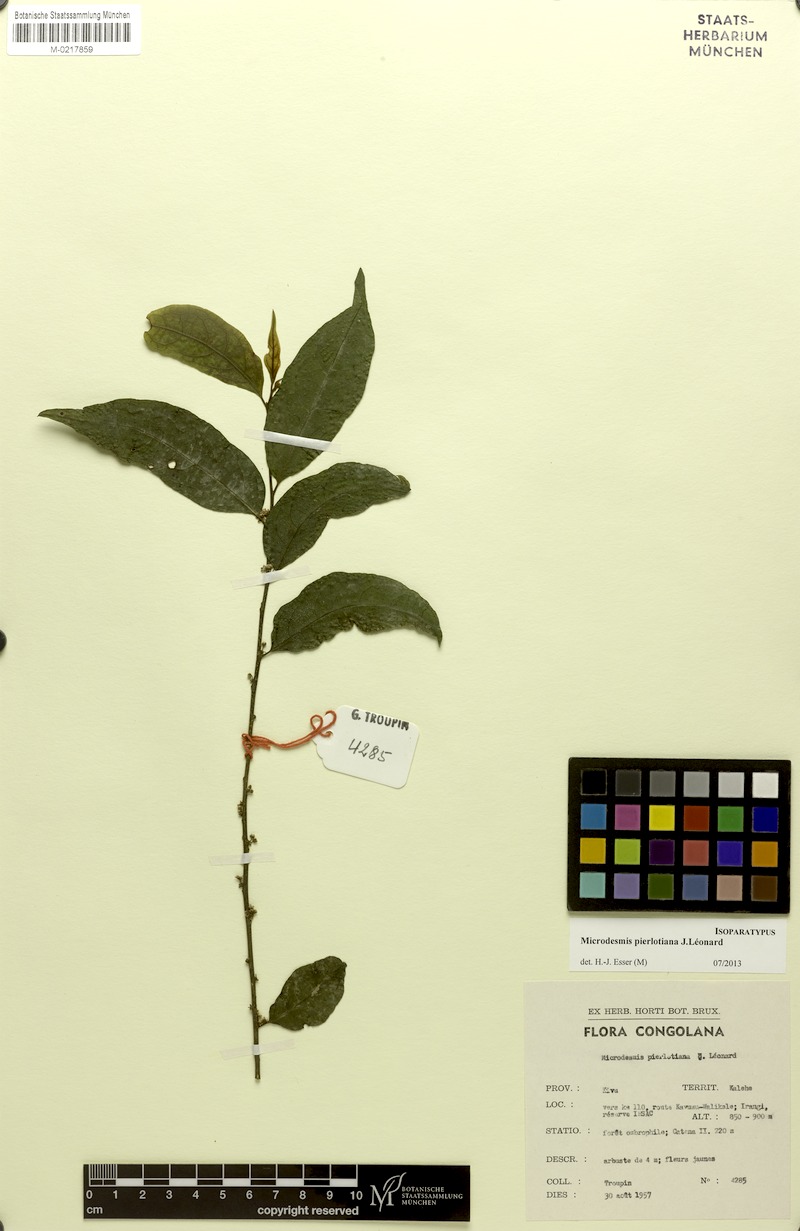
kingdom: Plantae
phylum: Tracheophyta
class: Magnoliopsida
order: Malpighiales
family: Pandaceae
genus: Microdesmis
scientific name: Microdesmis pierlotiana
